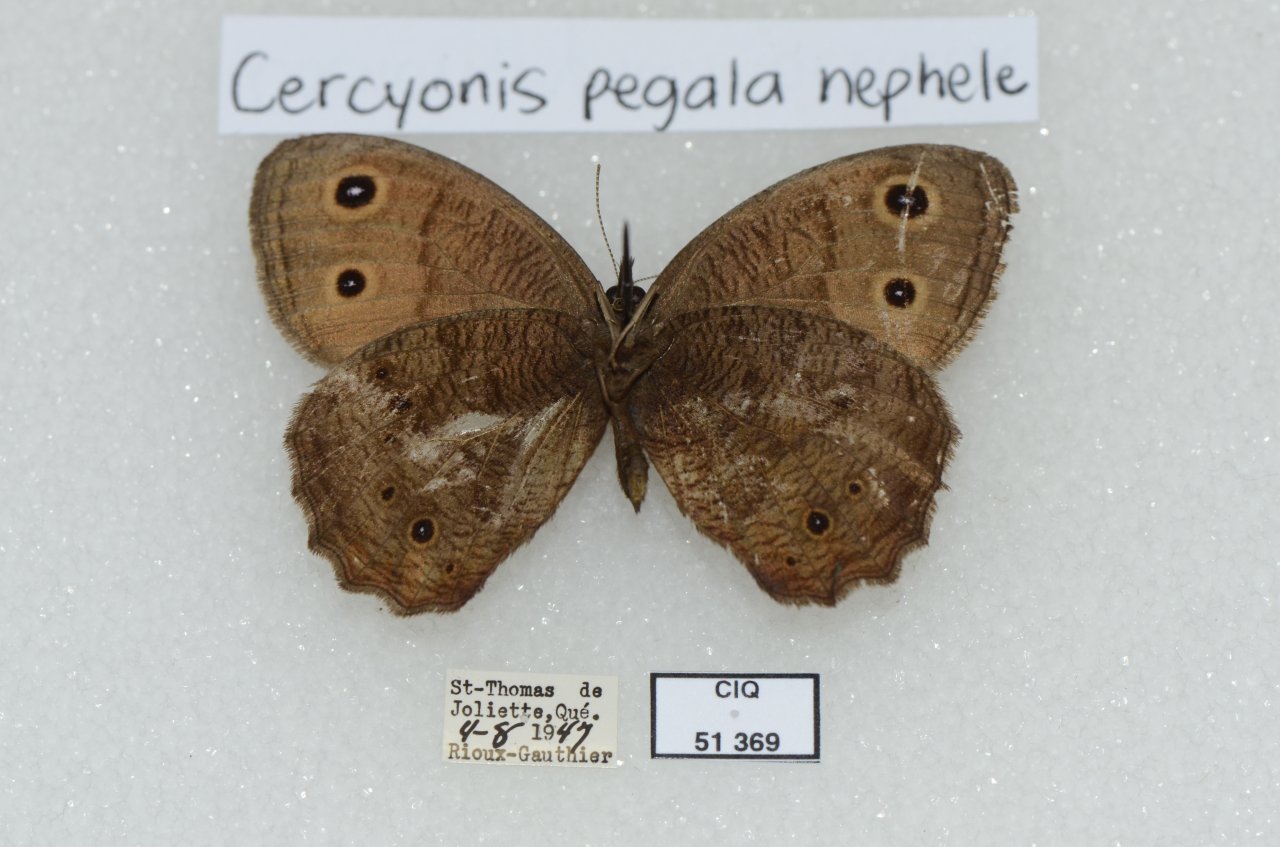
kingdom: Animalia
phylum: Arthropoda
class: Insecta
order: Lepidoptera
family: Nymphalidae
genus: Cercyonis
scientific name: Cercyonis pegala
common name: Common Wood-Nymph
